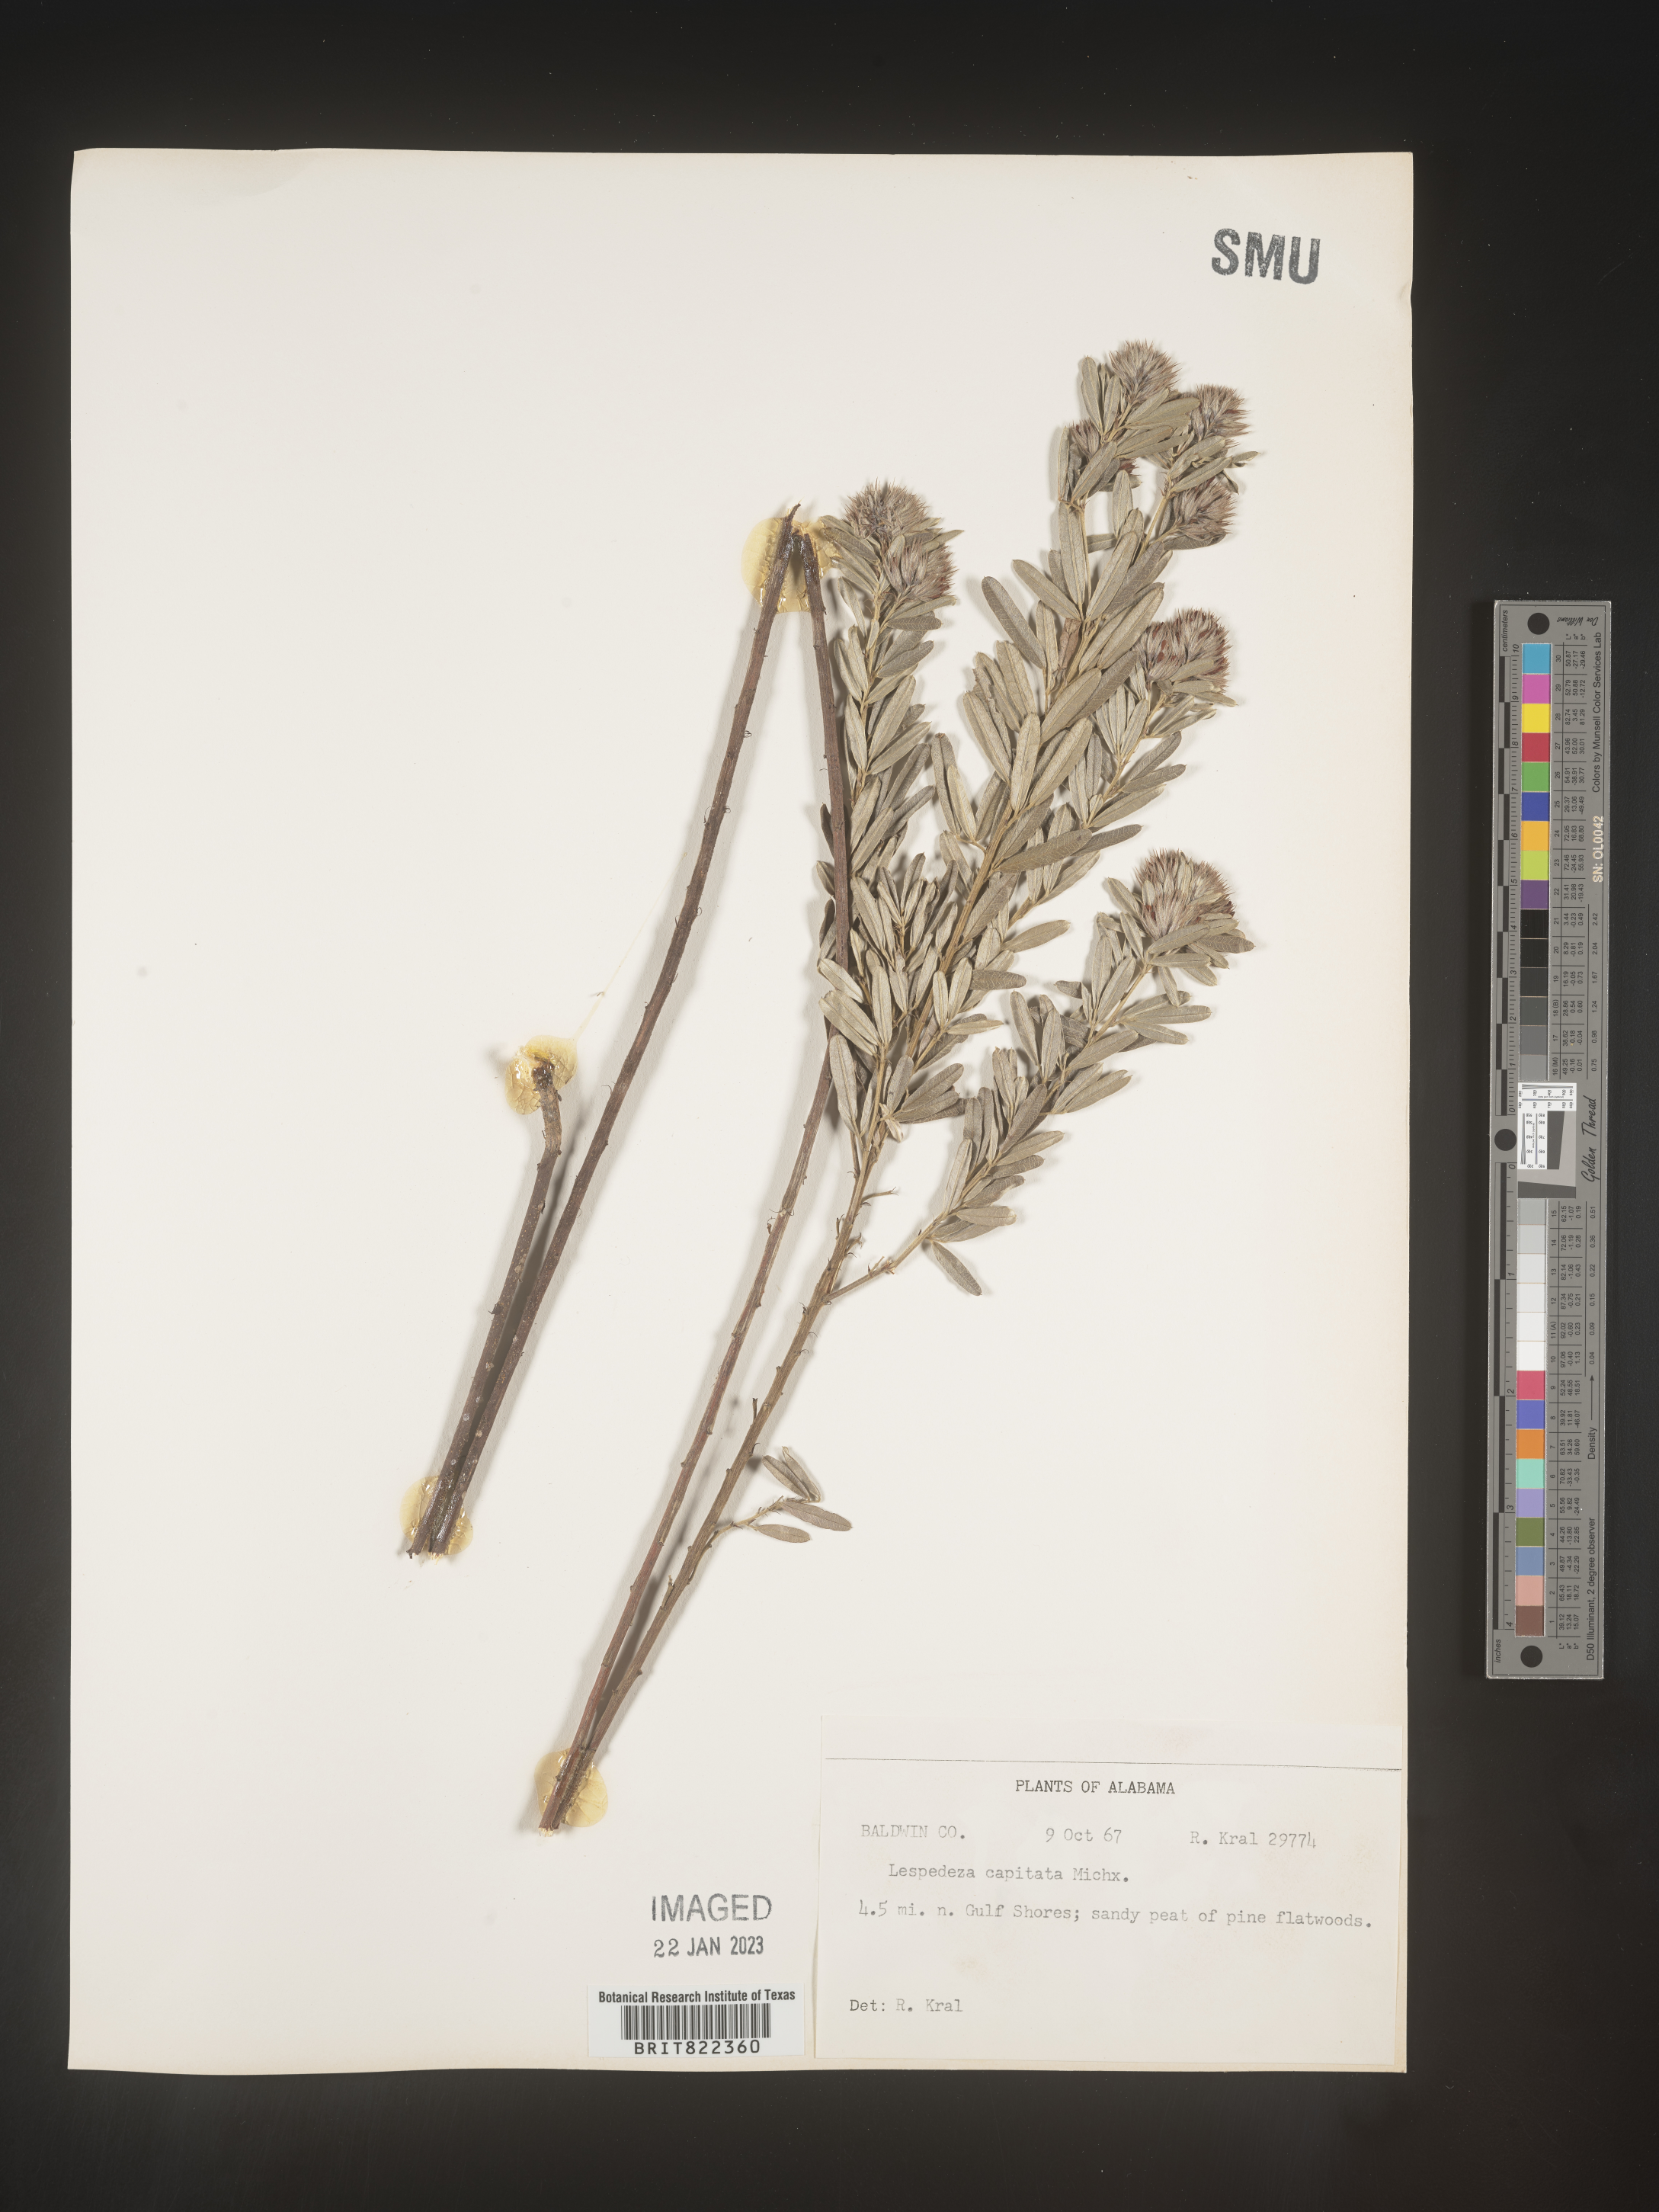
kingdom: Plantae
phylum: Tracheophyta
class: Magnoliopsida
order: Fabales
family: Fabaceae
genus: Lespedeza
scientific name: Lespedeza capitata
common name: Dusty clover
